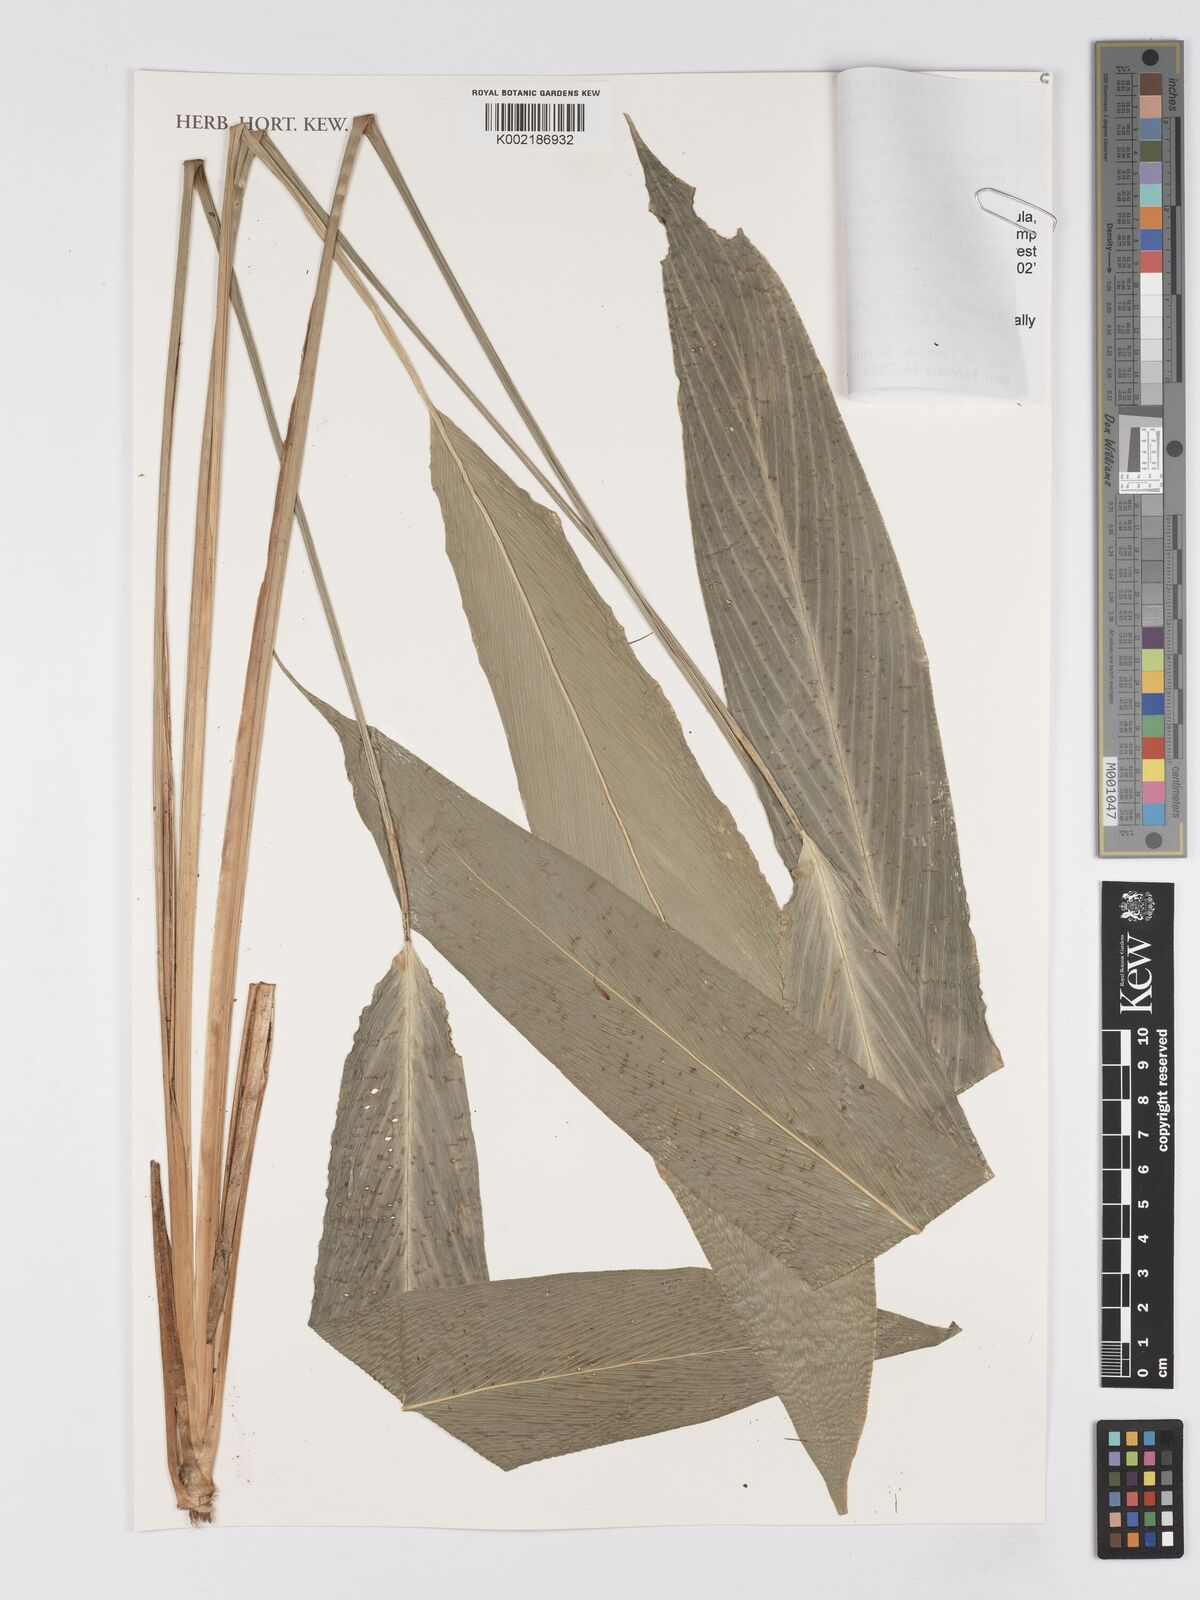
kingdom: Plantae
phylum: Tracheophyta
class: Liliopsida
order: Zingiberales
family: Marantaceae
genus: Phrynium
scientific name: Phrynium
